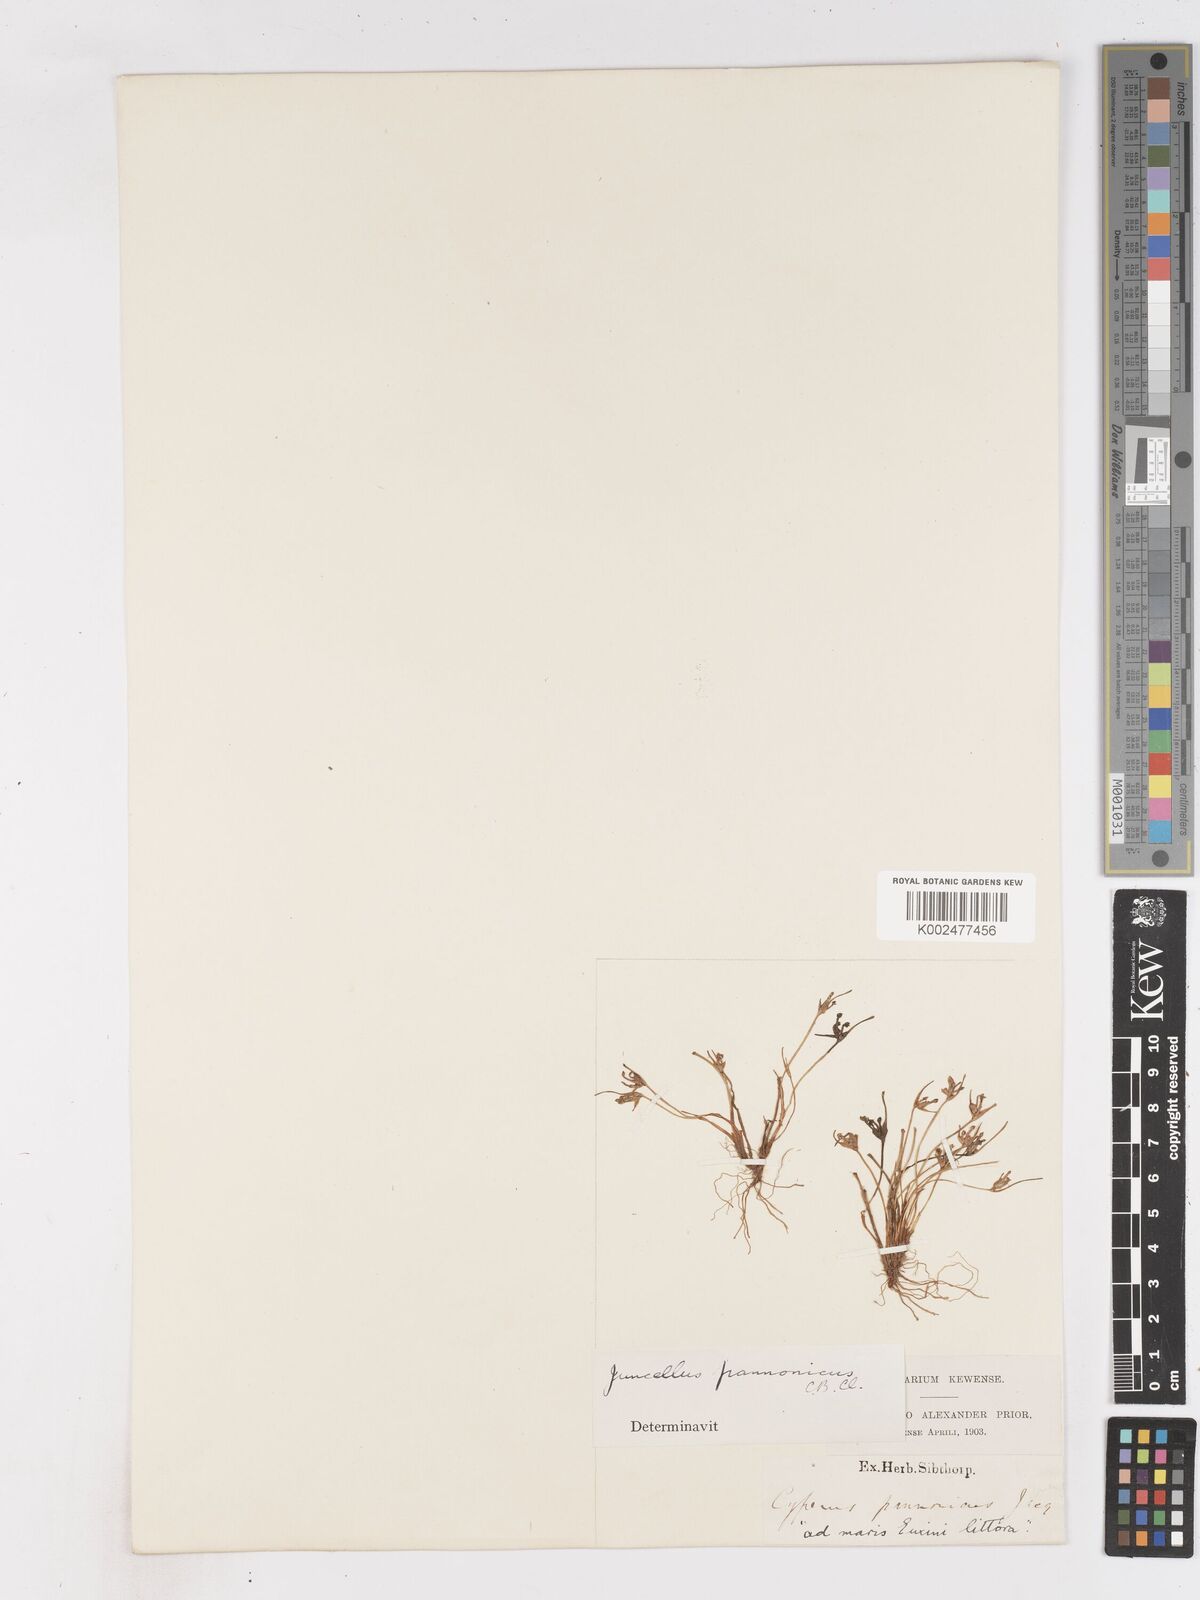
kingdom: Plantae
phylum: Tracheophyta
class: Liliopsida
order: Poales
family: Cyperaceae
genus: Cyperus
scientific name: Cyperus pannonicus
